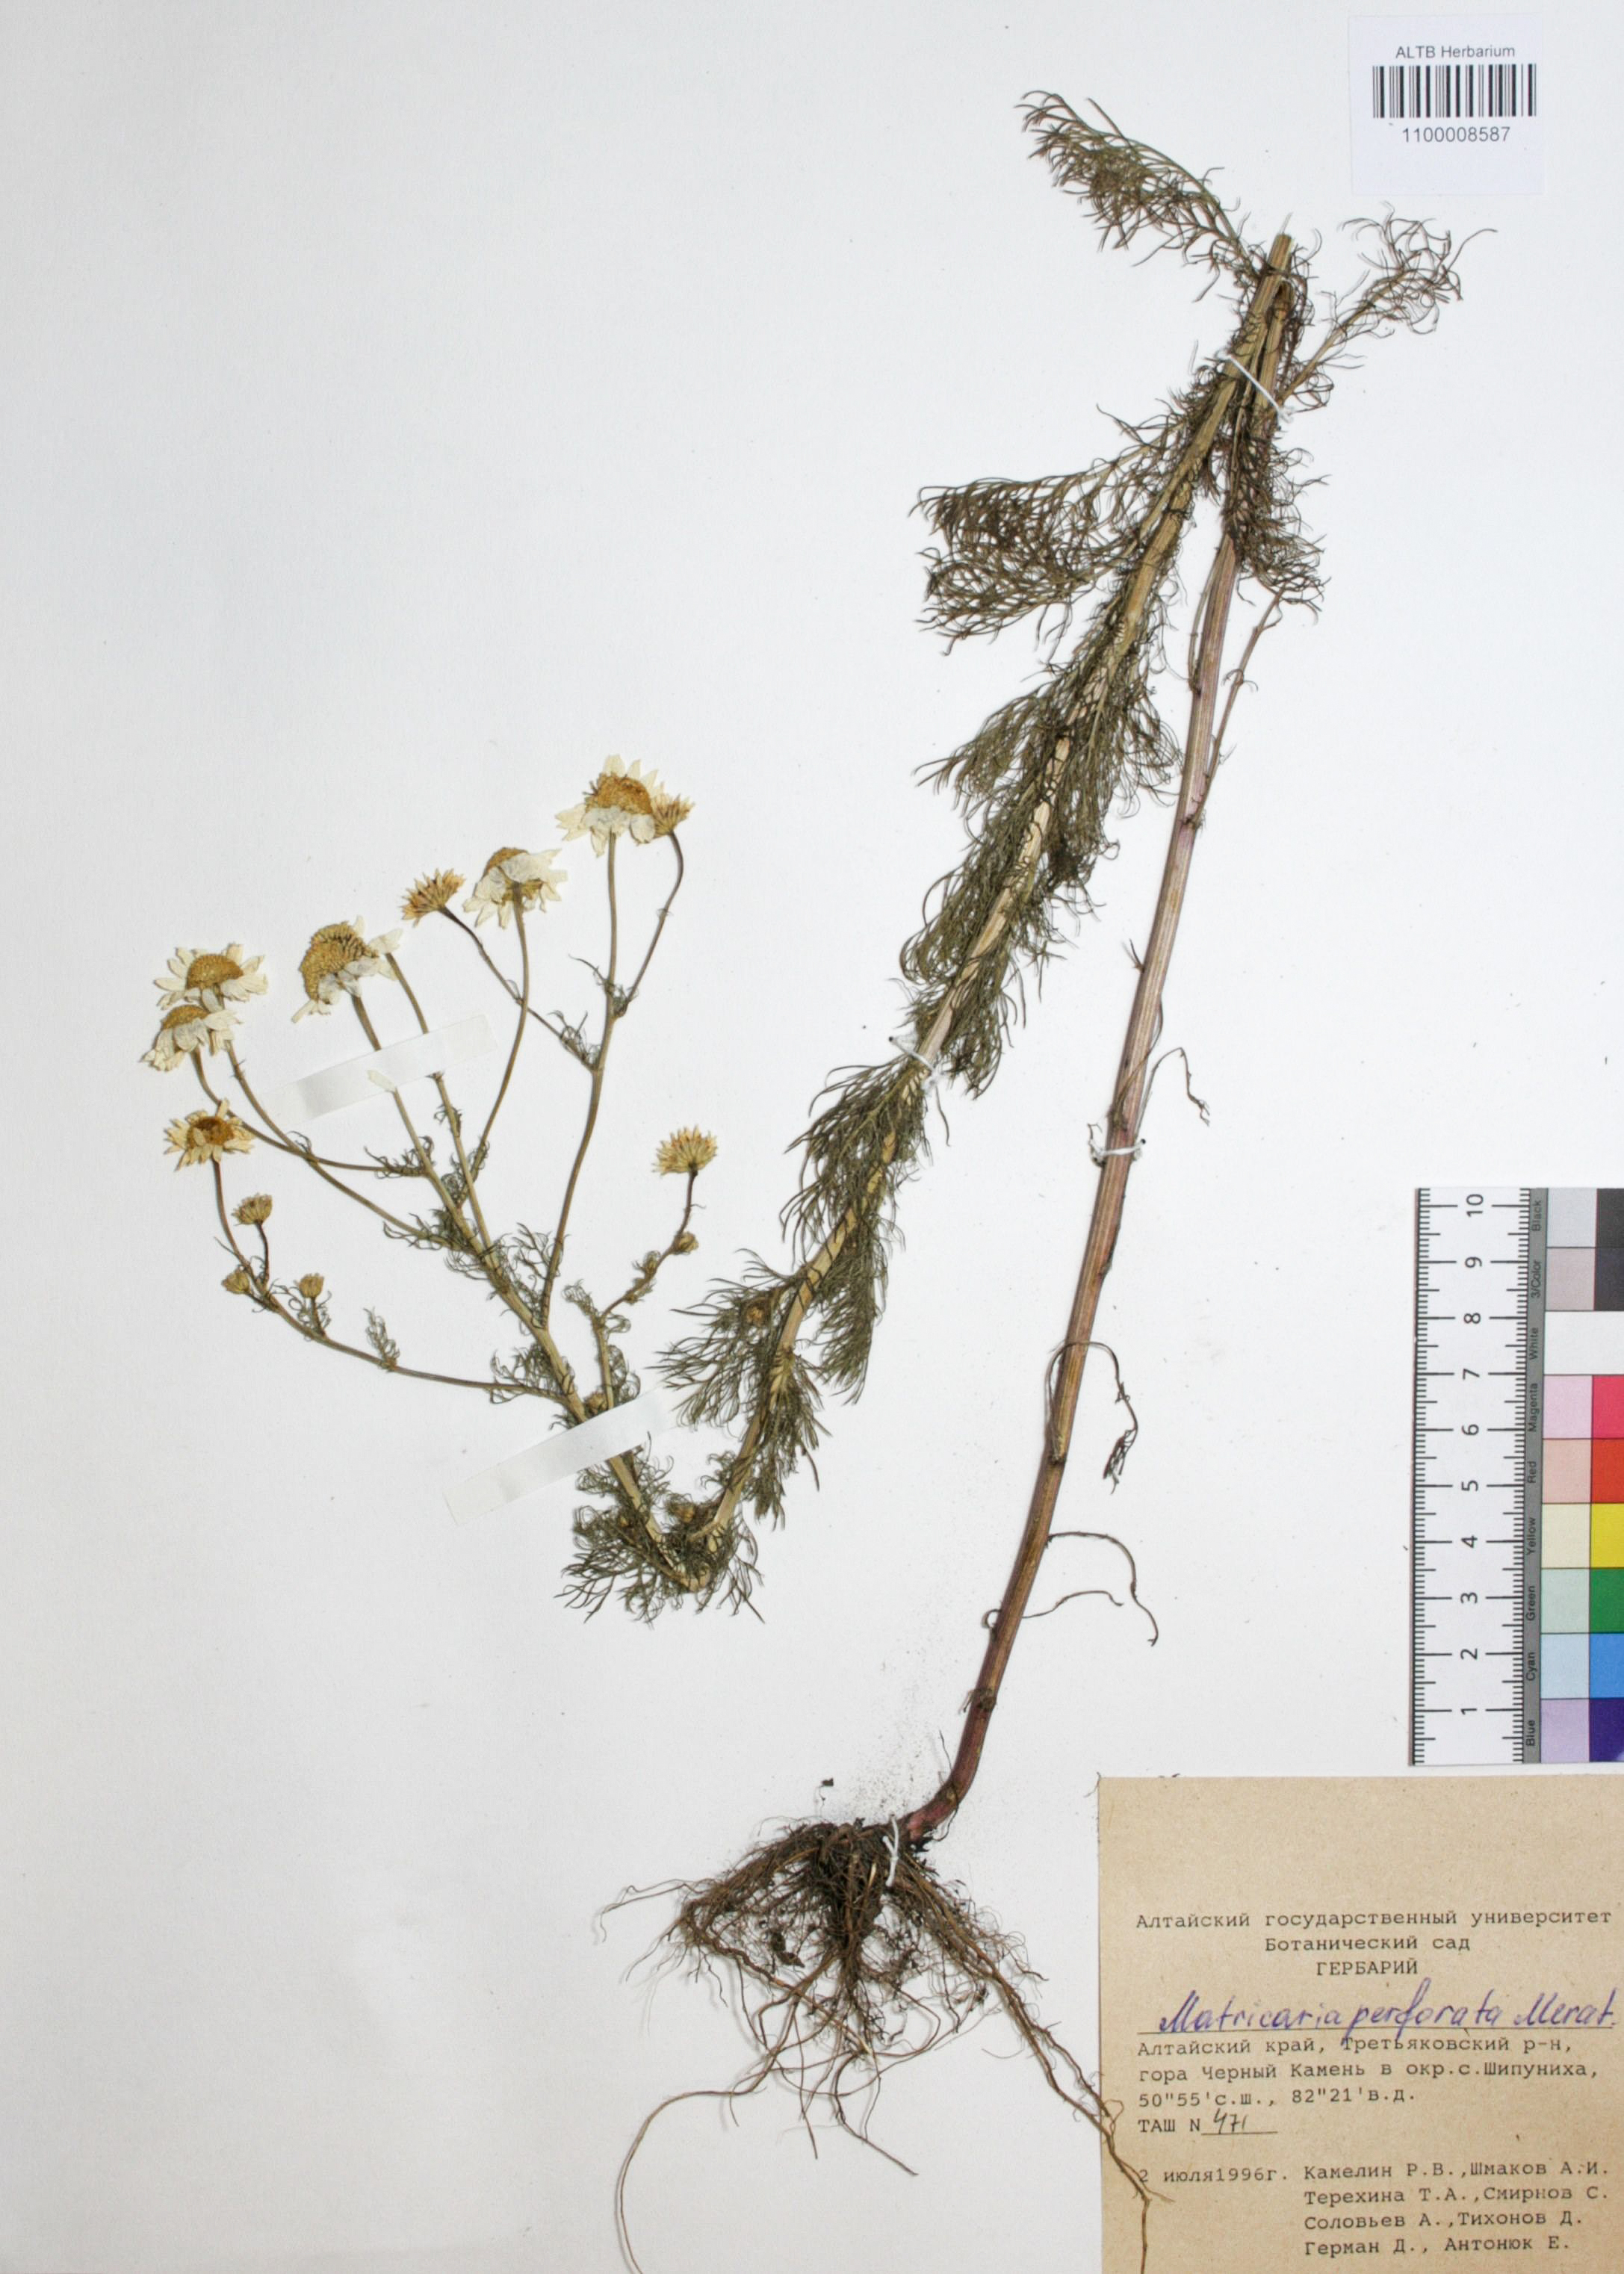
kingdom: Plantae
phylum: Tracheophyta
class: Magnoliopsida
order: Asterales
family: Asteraceae
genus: Tripleurospermum
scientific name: Tripleurospermum inodorum
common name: Scentless mayweed
